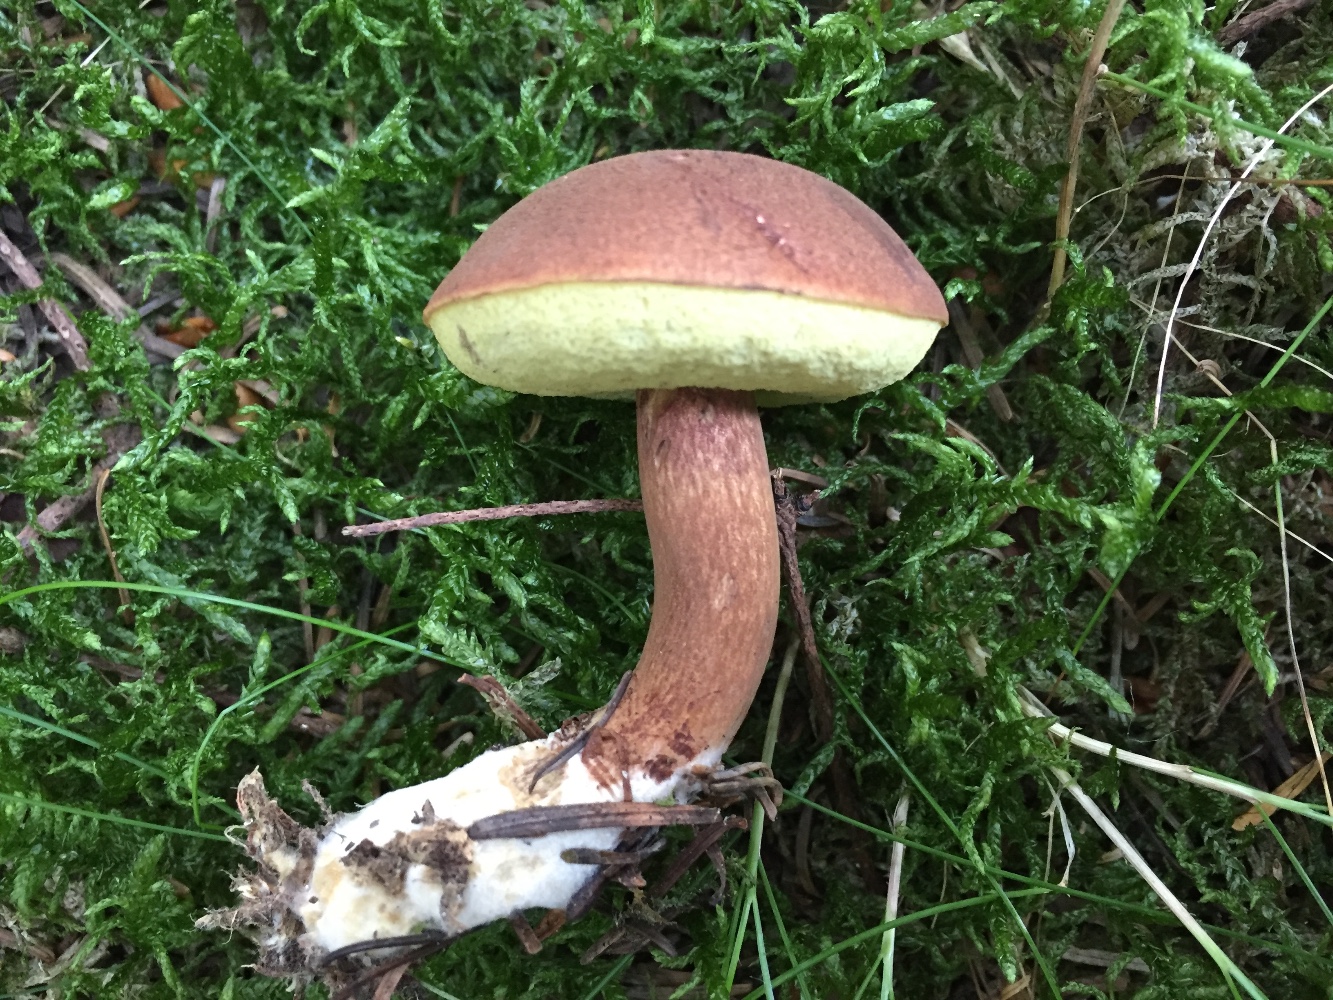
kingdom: Fungi
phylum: Basidiomycota
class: Agaricomycetes
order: Boletales
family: Boletaceae
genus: Imleria
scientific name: Imleria badia
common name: brunstokket rørhat
